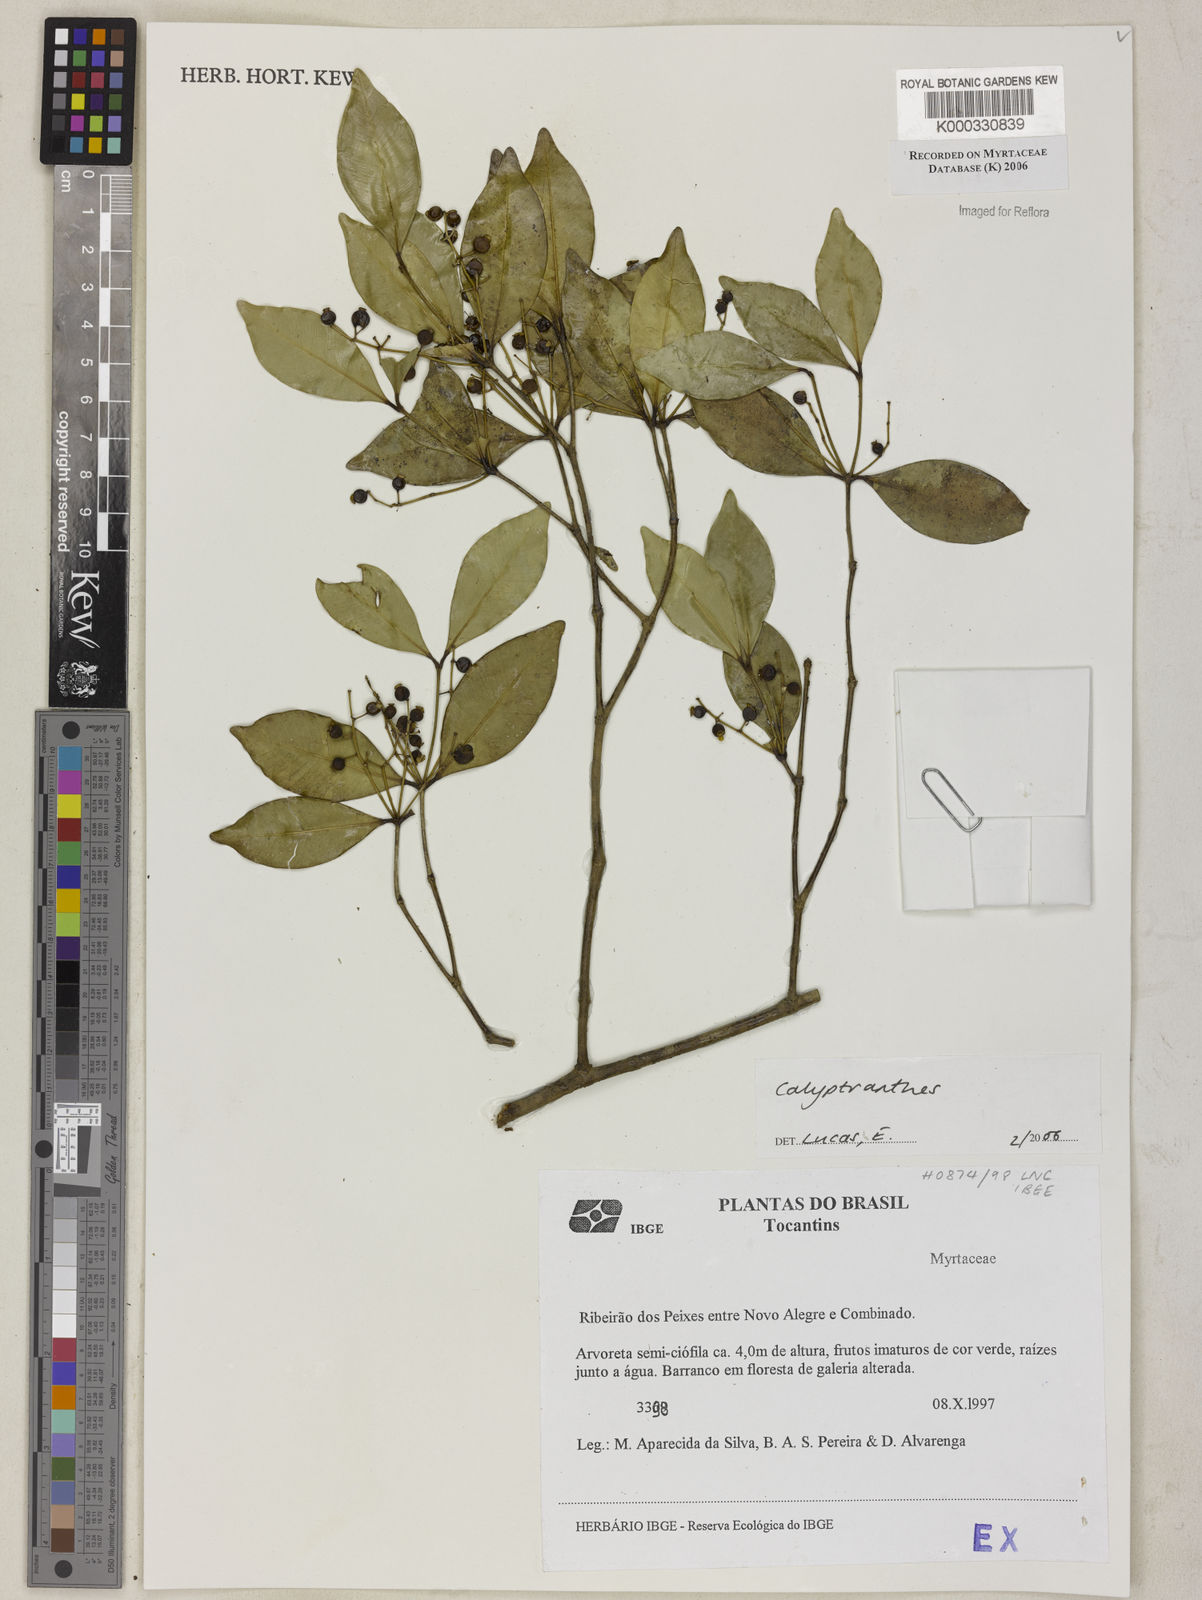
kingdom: Plantae
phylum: Tracheophyta
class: Magnoliopsida
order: Myrtales
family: Myrtaceae
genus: Calyptranthes
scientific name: Calyptranthes
